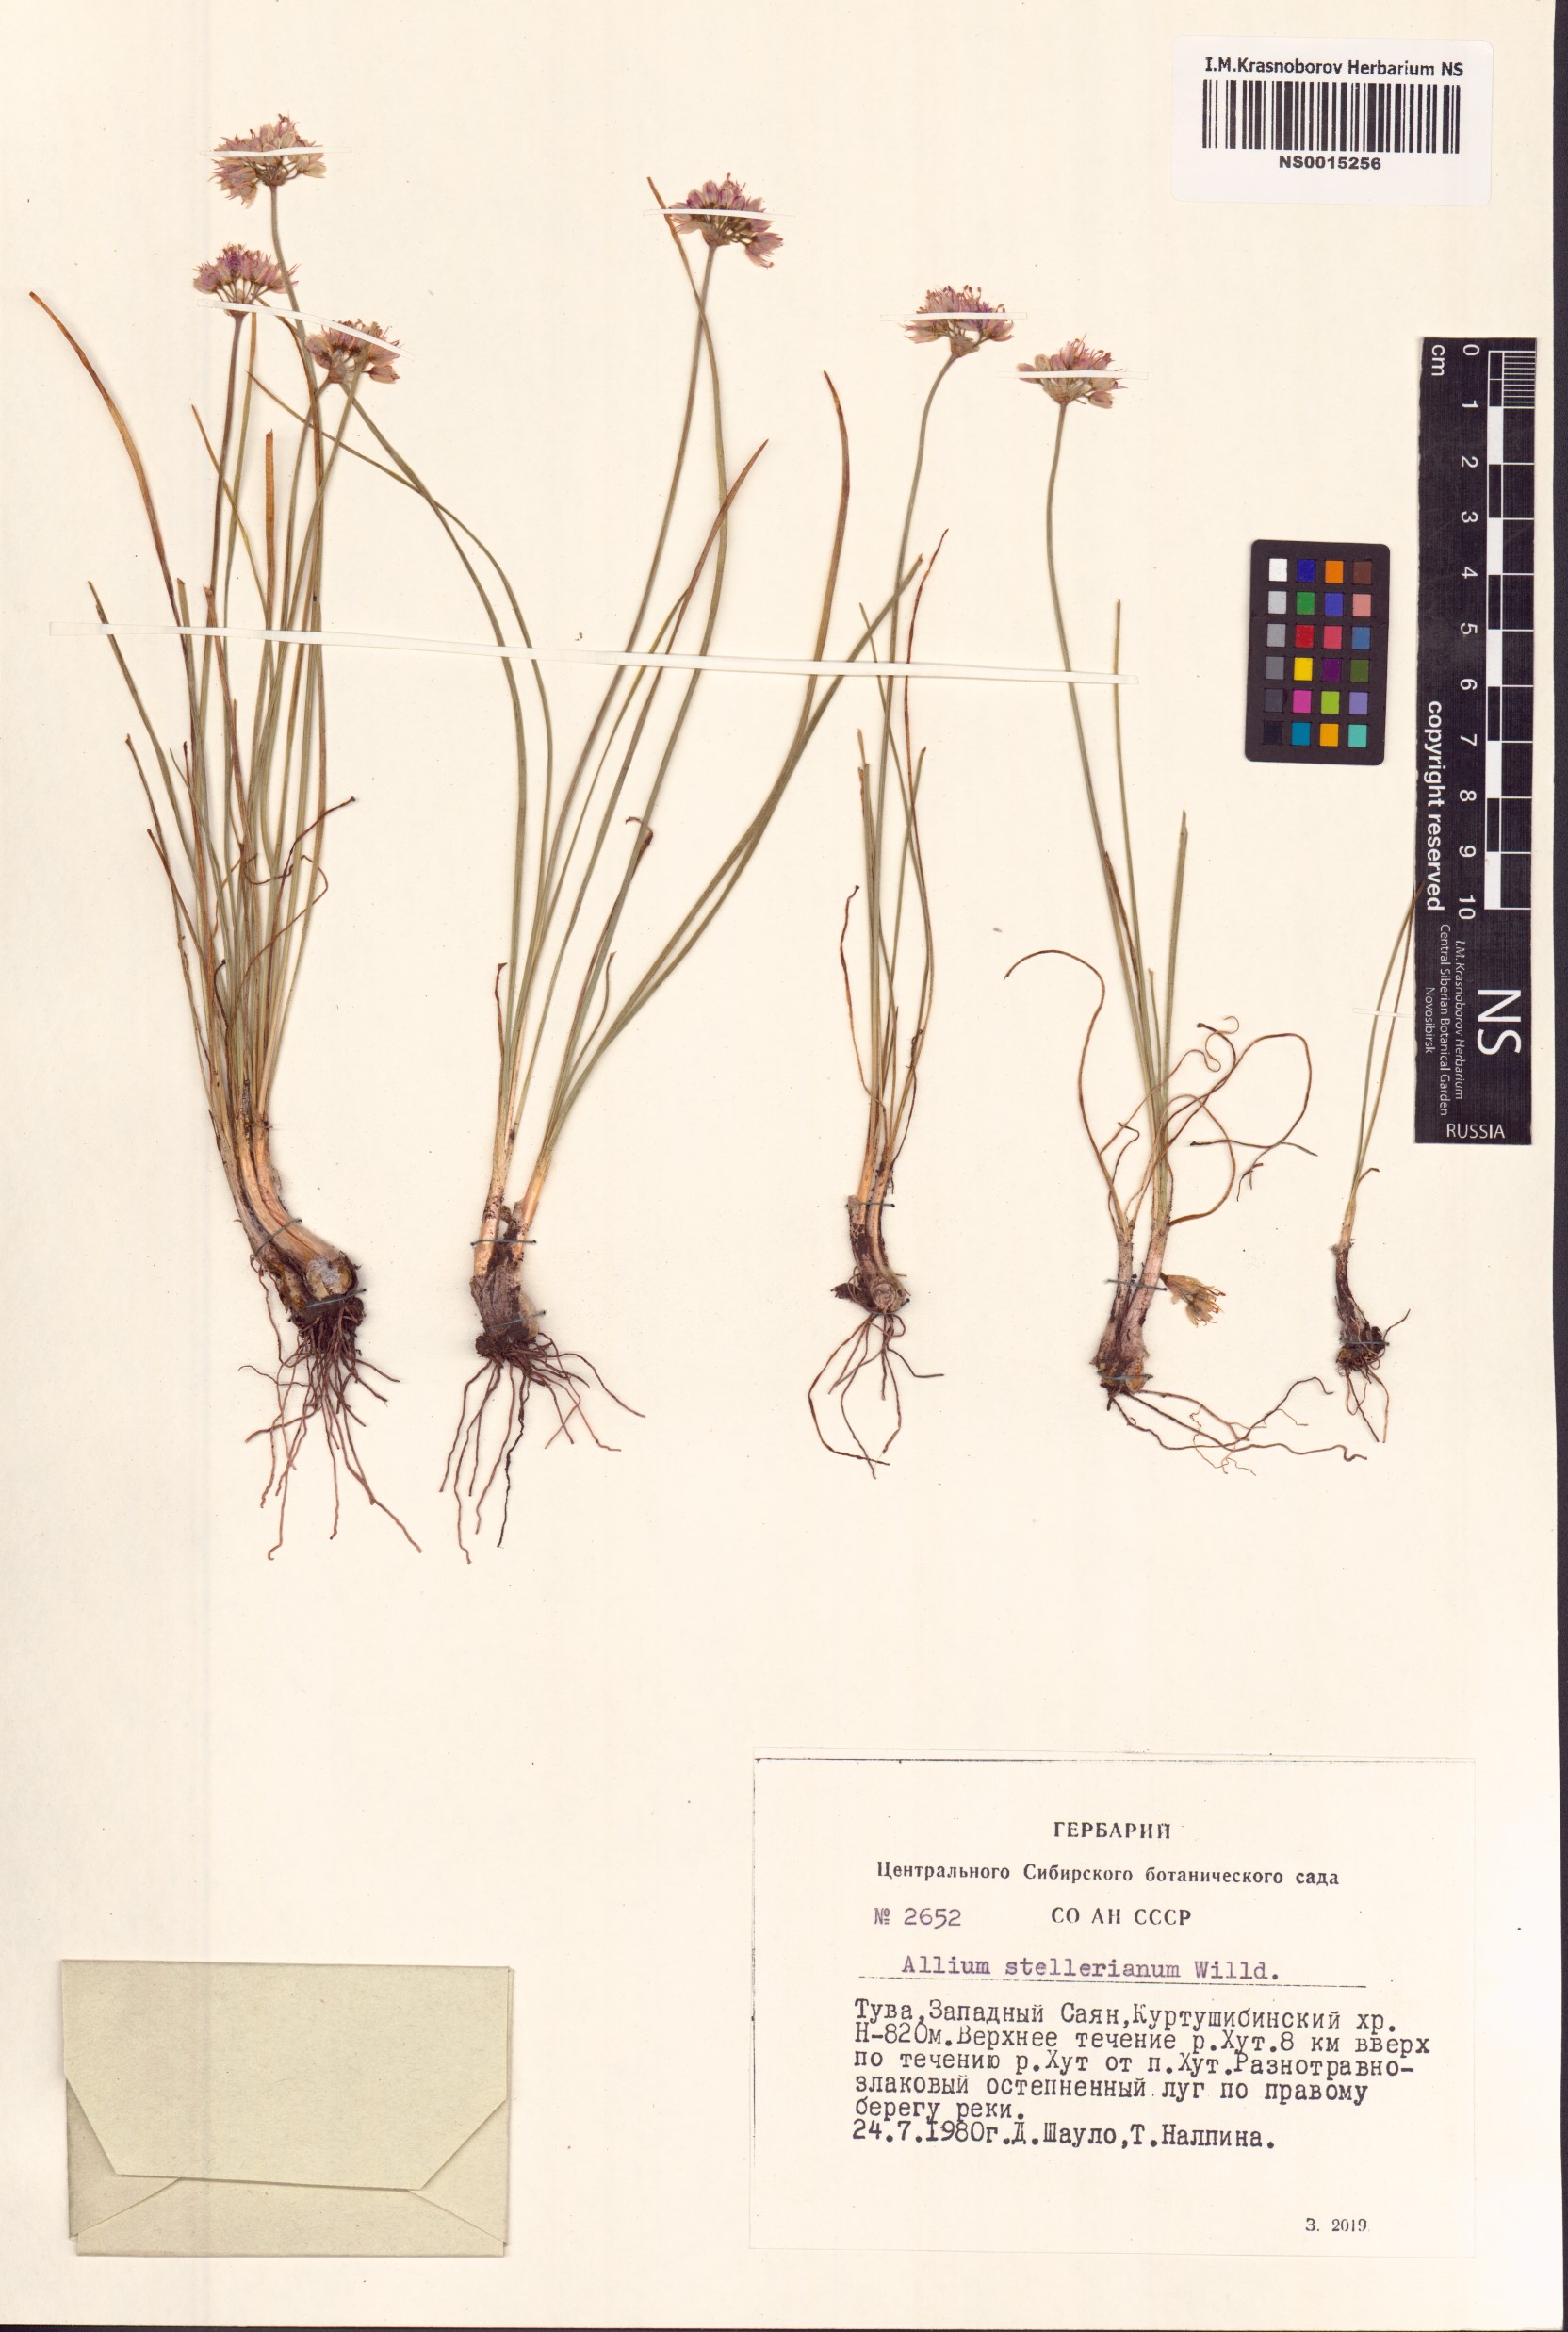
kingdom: Plantae
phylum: Tracheophyta
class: Liliopsida
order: Asparagales
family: Amaryllidaceae
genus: Allium
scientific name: Allium stellerianum
